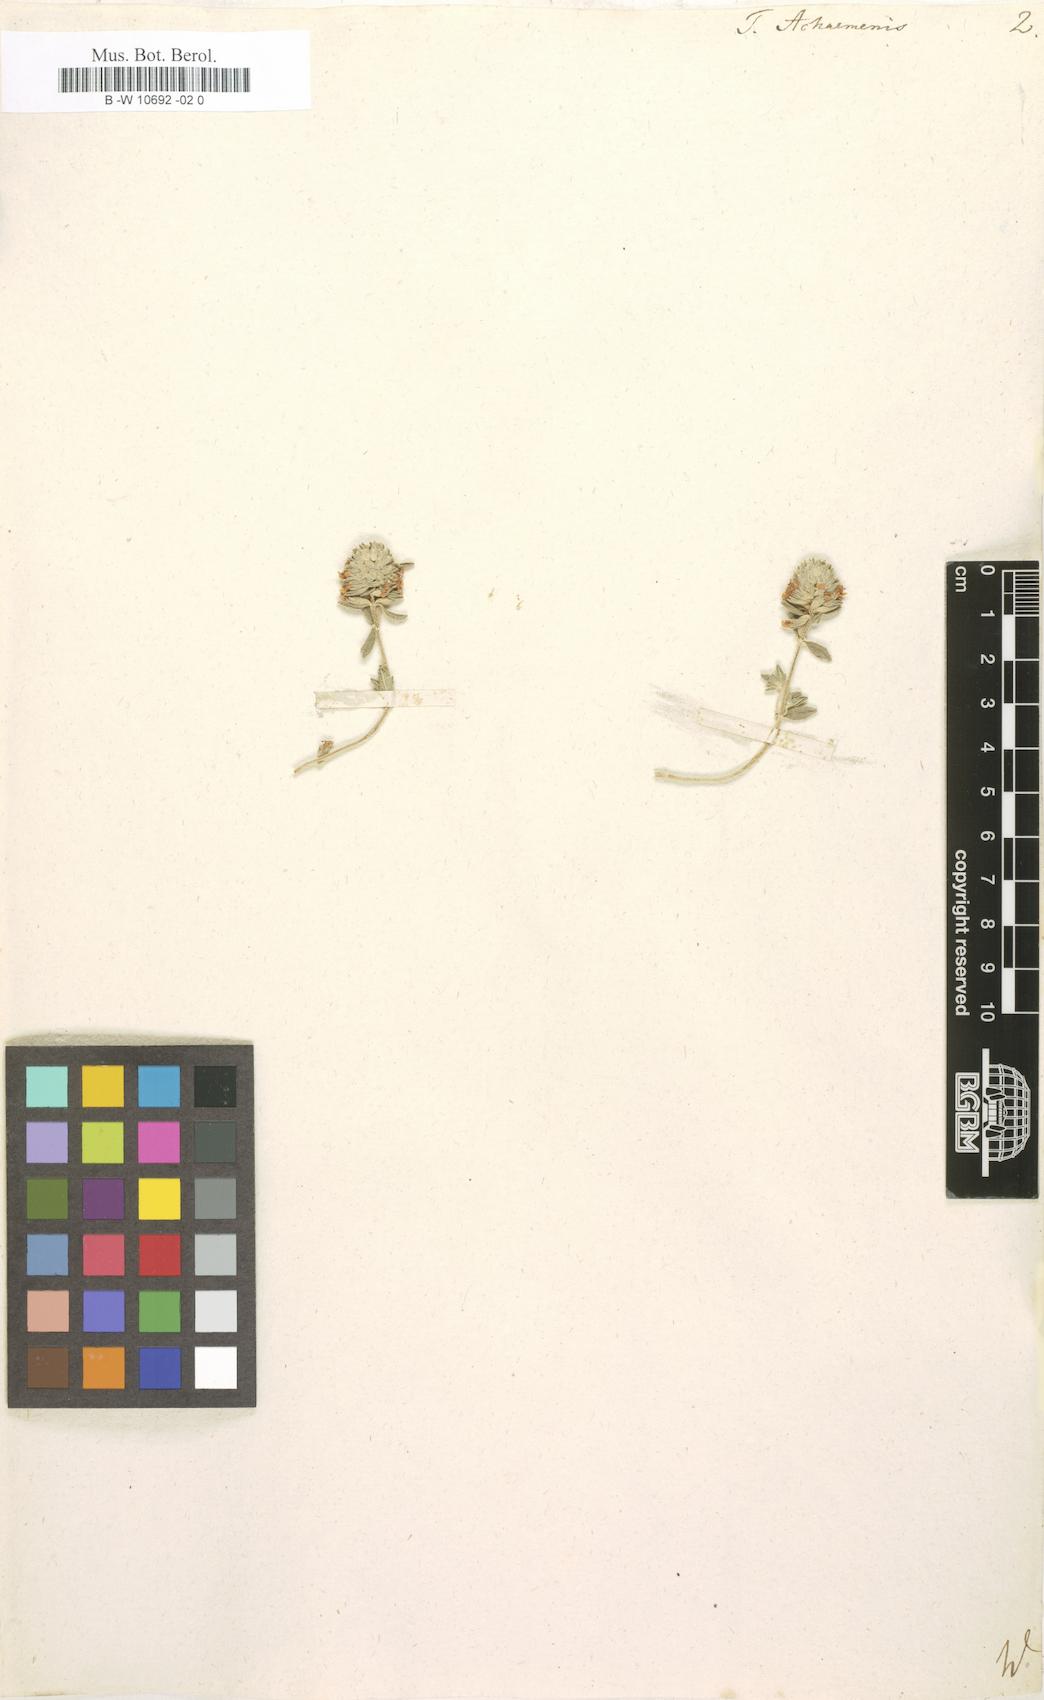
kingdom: Plantae
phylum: Tracheophyta
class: Magnoliopsida
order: Lamiales
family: Lamiaceae
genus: Teucrium
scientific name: Teucrium capitatum
